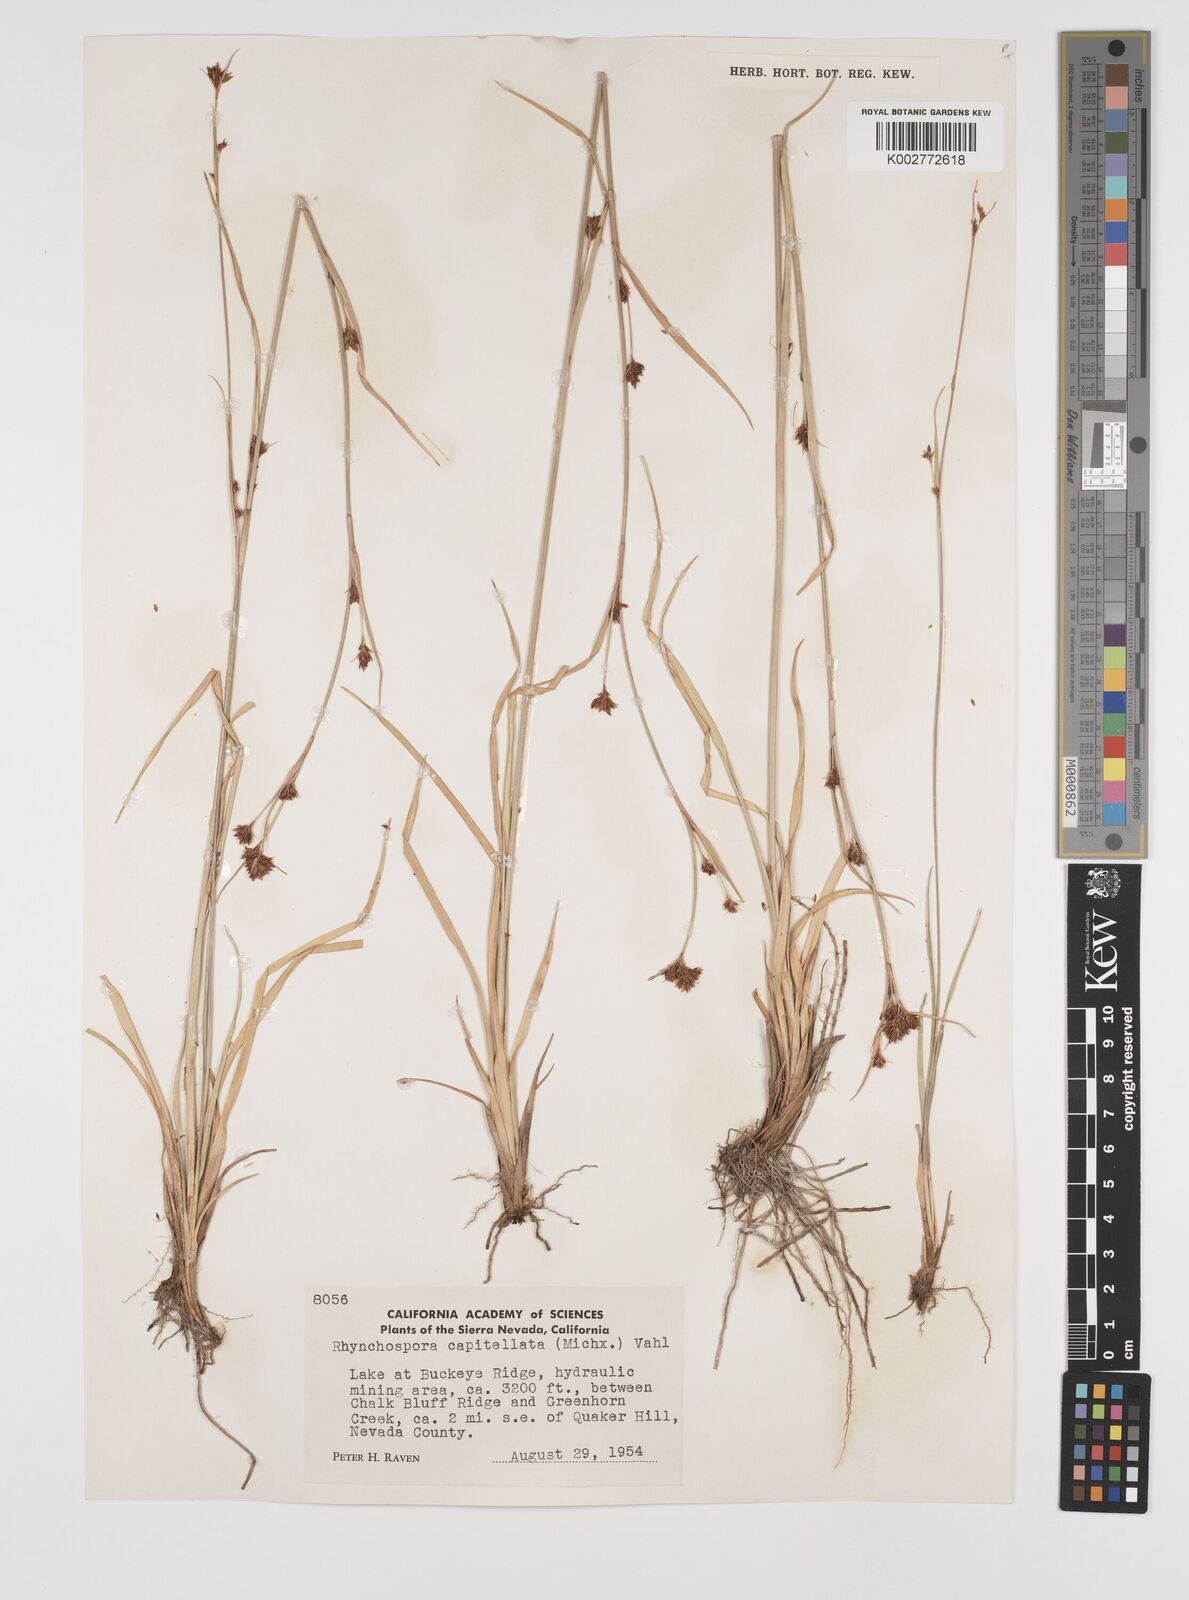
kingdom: Plantae
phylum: Tracheophyta
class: Liliopsida
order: Poales
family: Cyperaceae
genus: Rhynchospora
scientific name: Rhynchospora capitellata
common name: Brownish beaksedge
